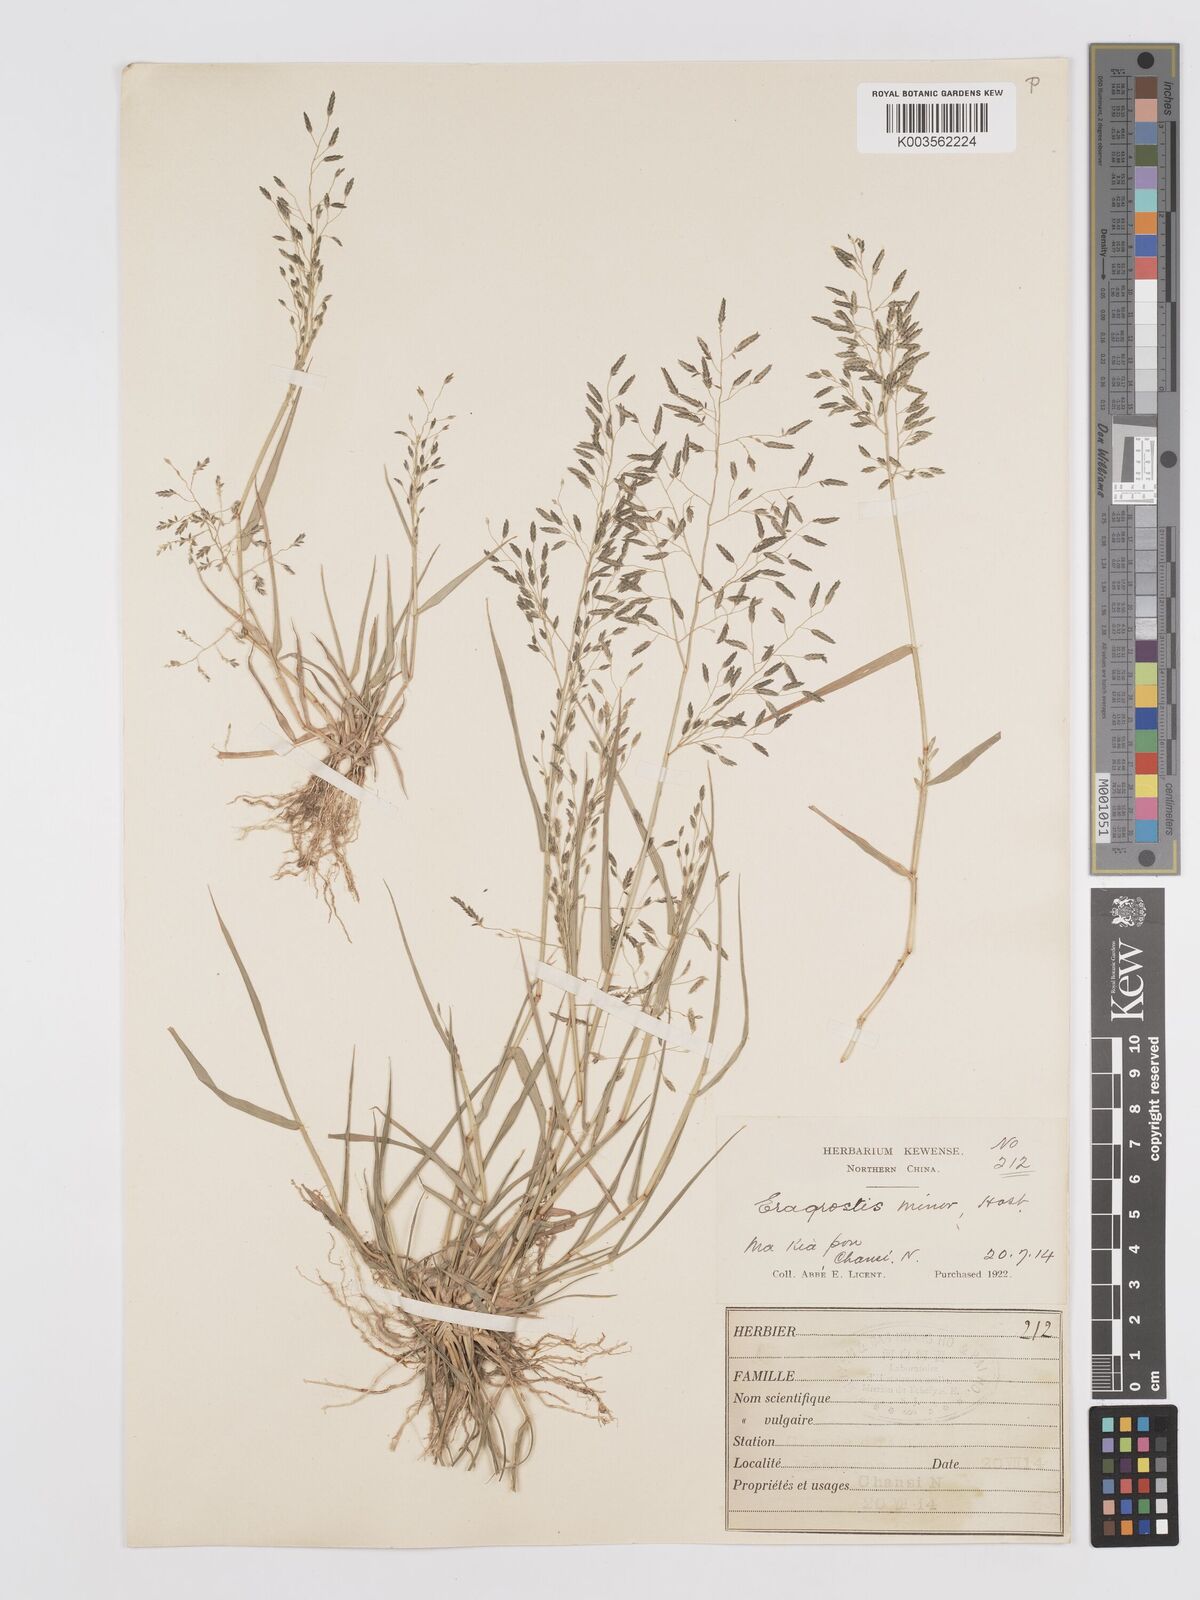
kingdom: Plantae
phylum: Tracheophyta
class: Liliopsida
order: Poales
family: Poaceae
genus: Eragrostis
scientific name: Eragrostis minor
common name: Small love-grass
